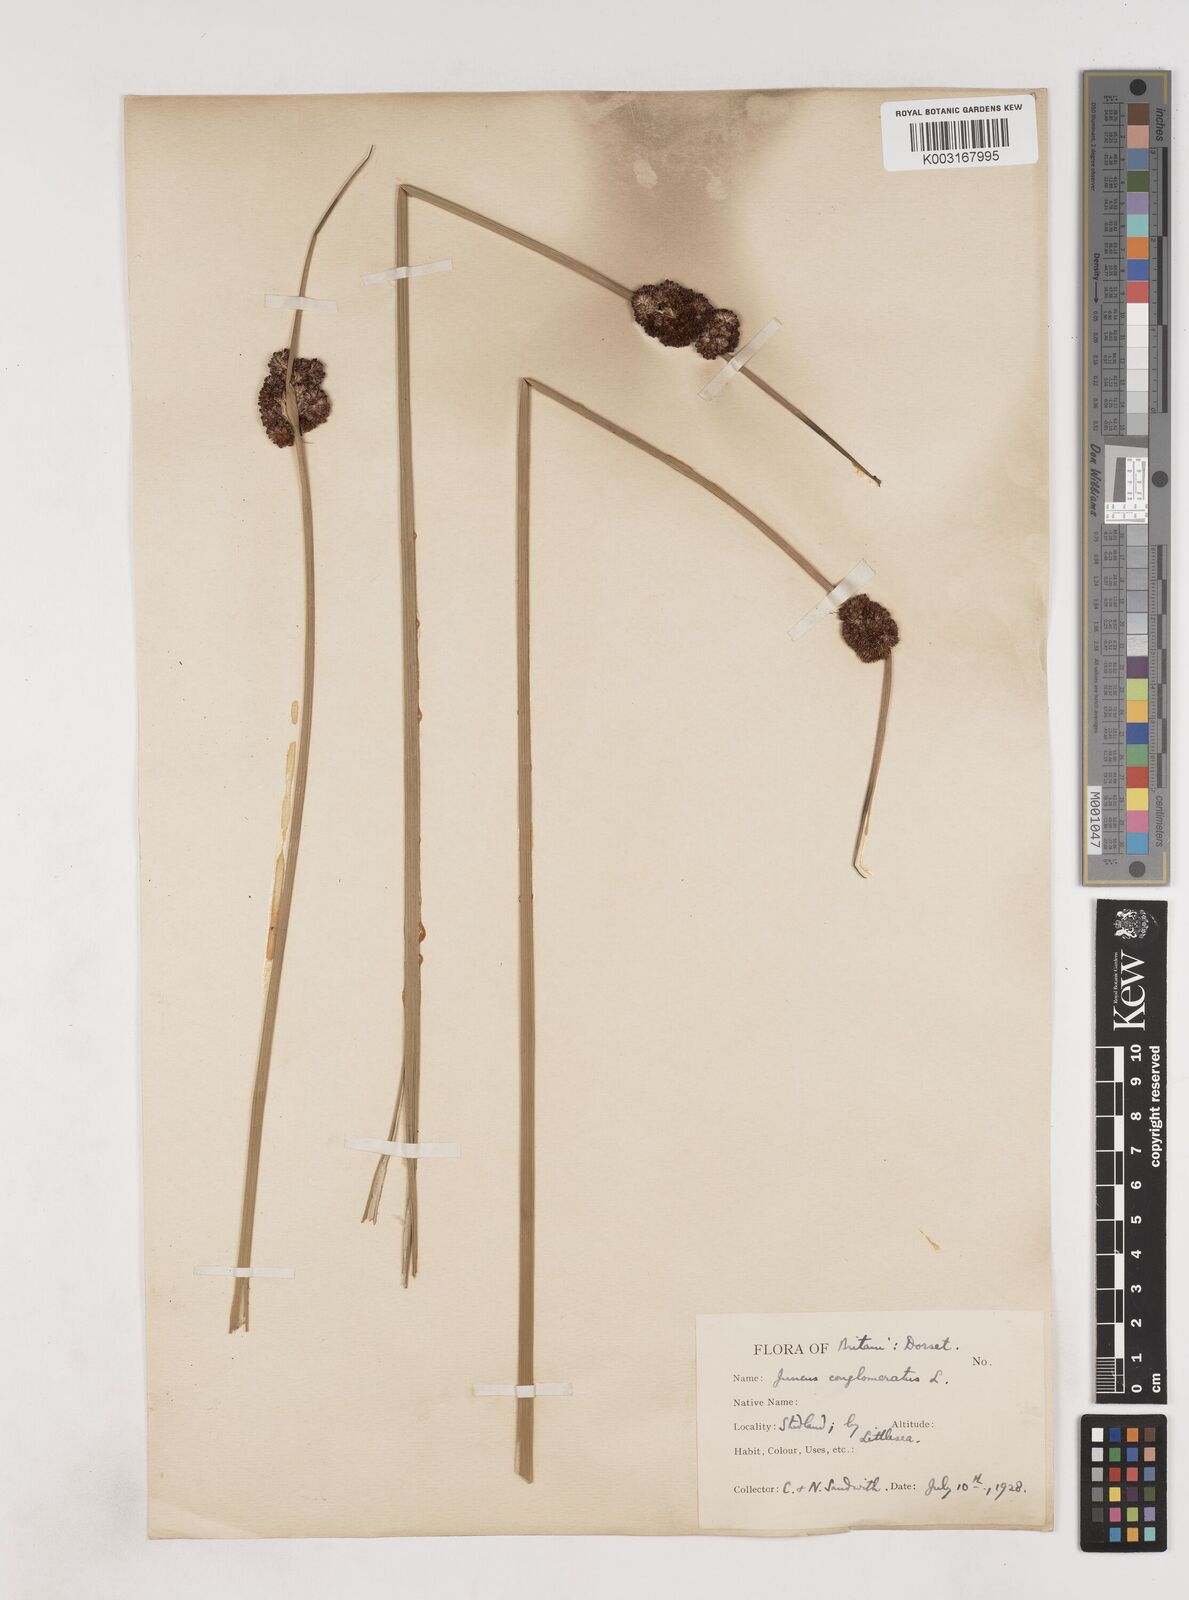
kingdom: Plantae
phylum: Tracheophyta
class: Liliopsida
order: Poales
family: Juncaceae
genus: Juncus
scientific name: Juncus conglomeratus
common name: Compact rush
